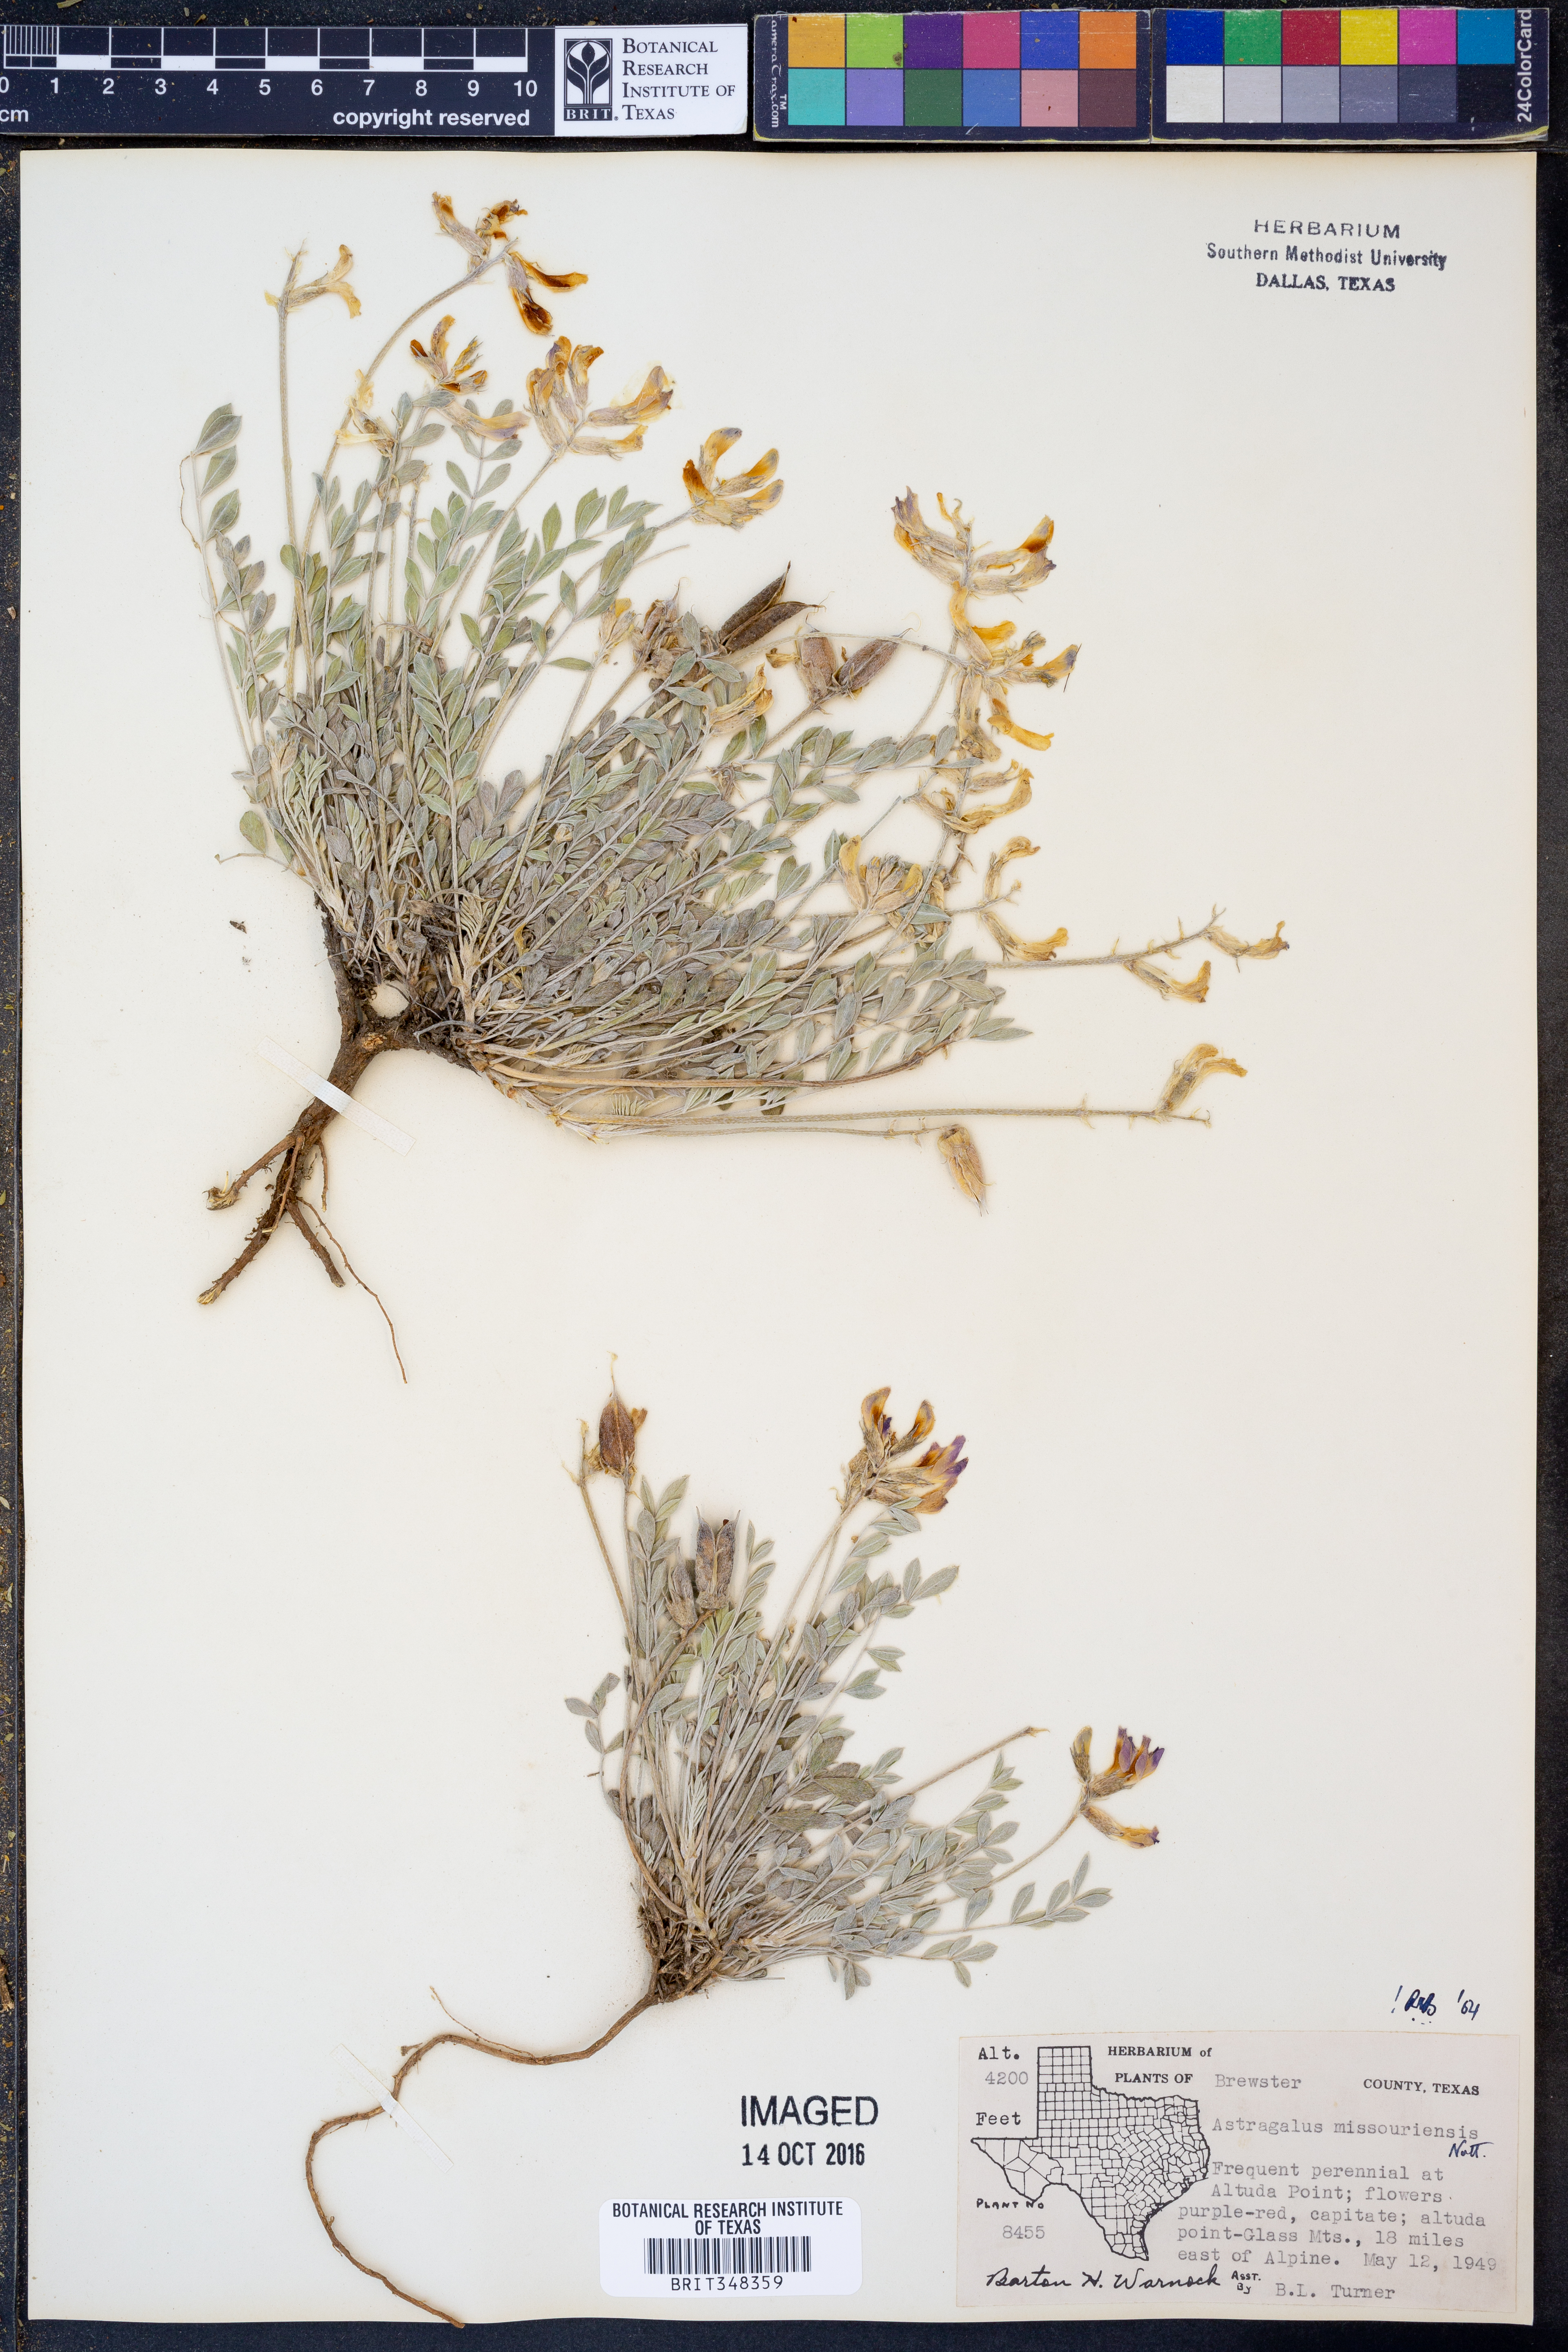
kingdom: Plantae
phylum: Tracheophyta
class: Magnoliopsida
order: Fabales
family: Fabaceae
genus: Astragalus
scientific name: Astragalus missouriensis
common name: Missouri milk-vetch
